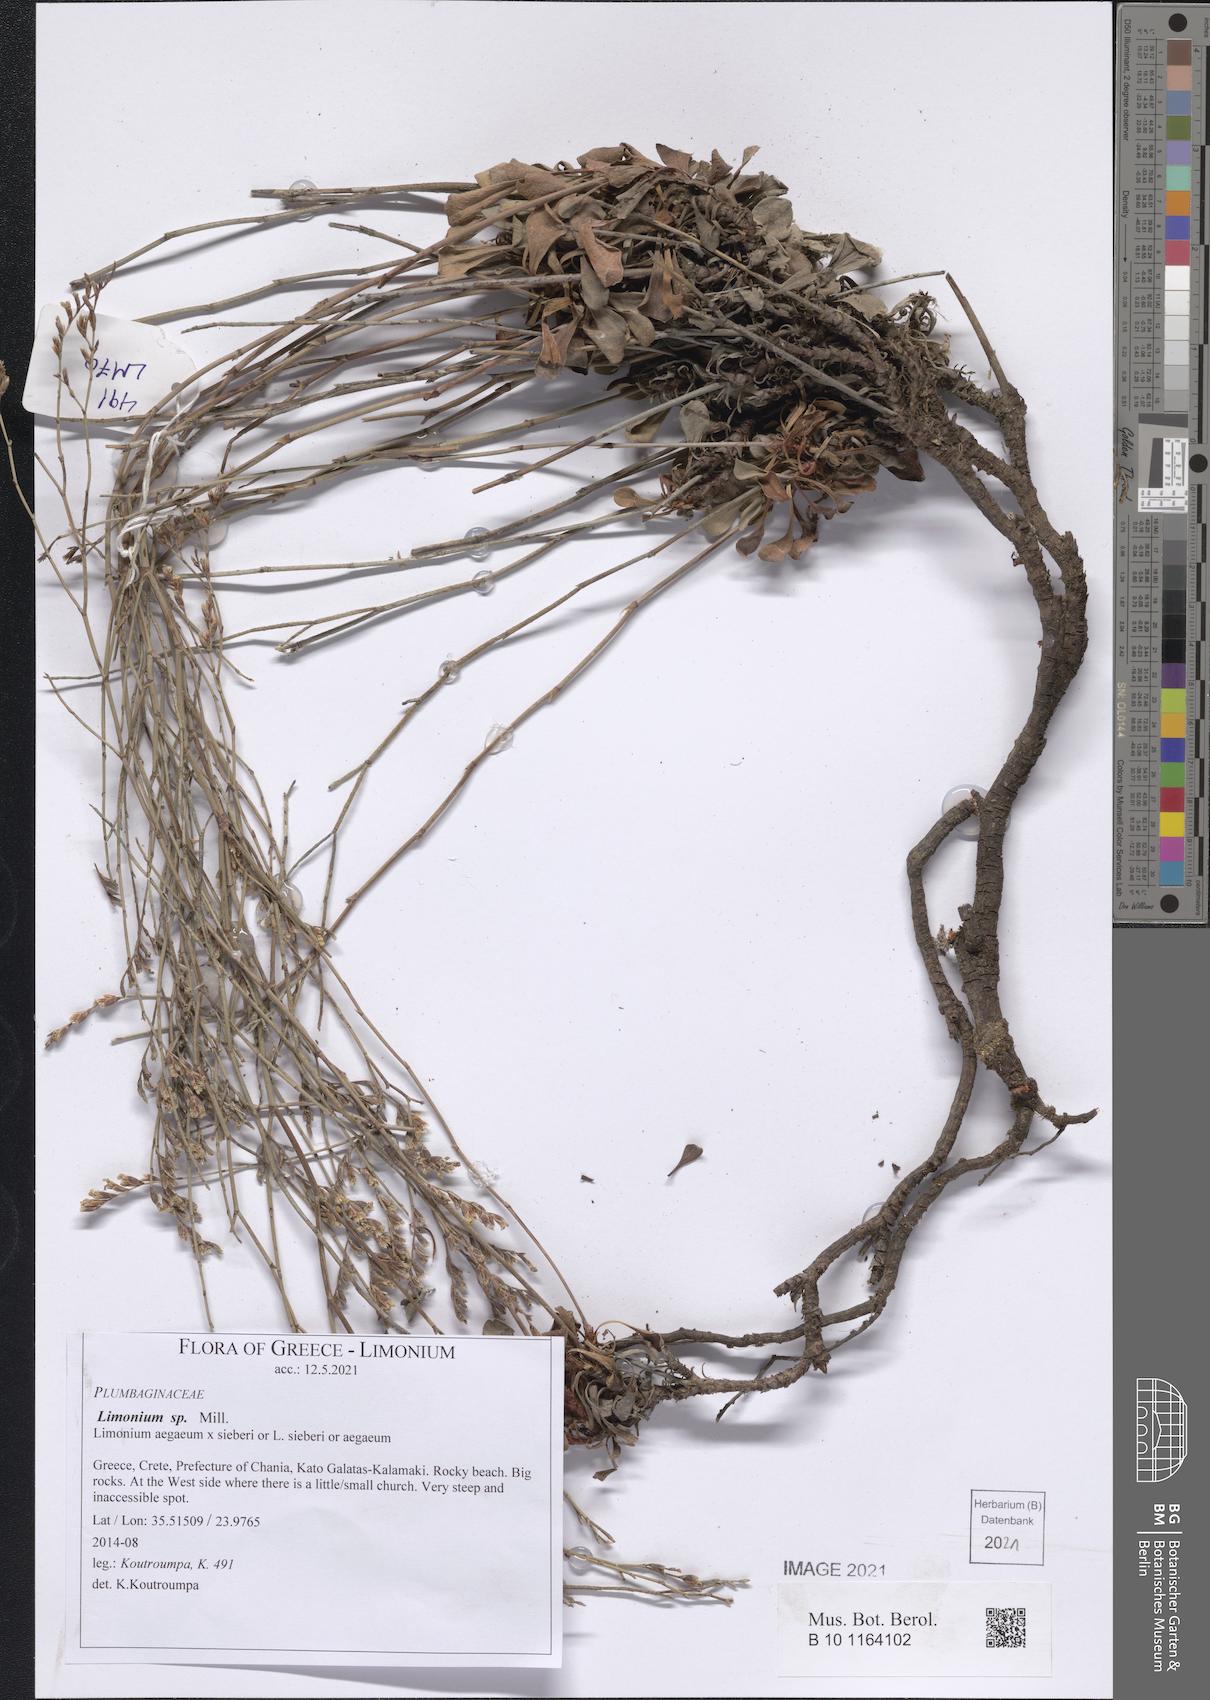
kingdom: Plantae
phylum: Tracheophyta
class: Magnoliopsida
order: Caryophyllales
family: Plumbaginaceae
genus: Limonium
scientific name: Limonium
